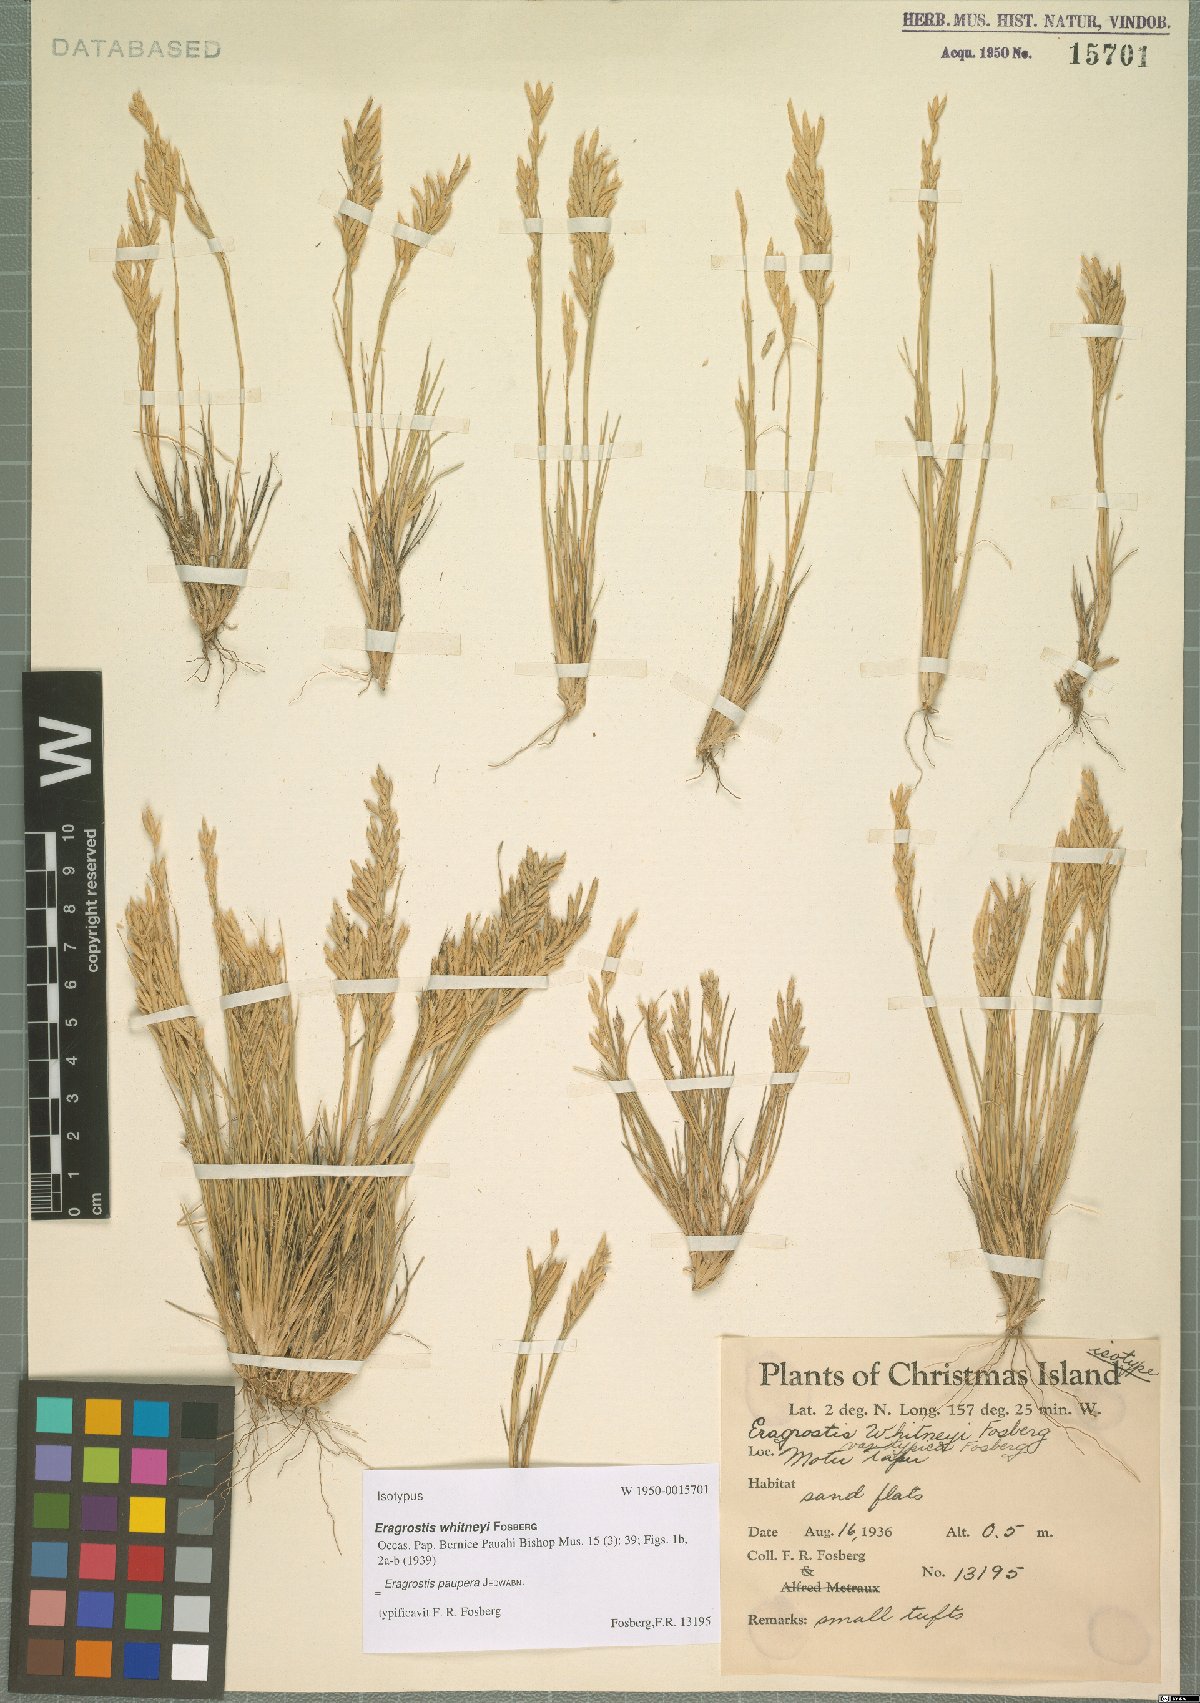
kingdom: Plantae
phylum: Tracheophyta
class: Liliopsida
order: Poales
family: Poaceae
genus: Eragrostis
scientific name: Eragrostis paupera
